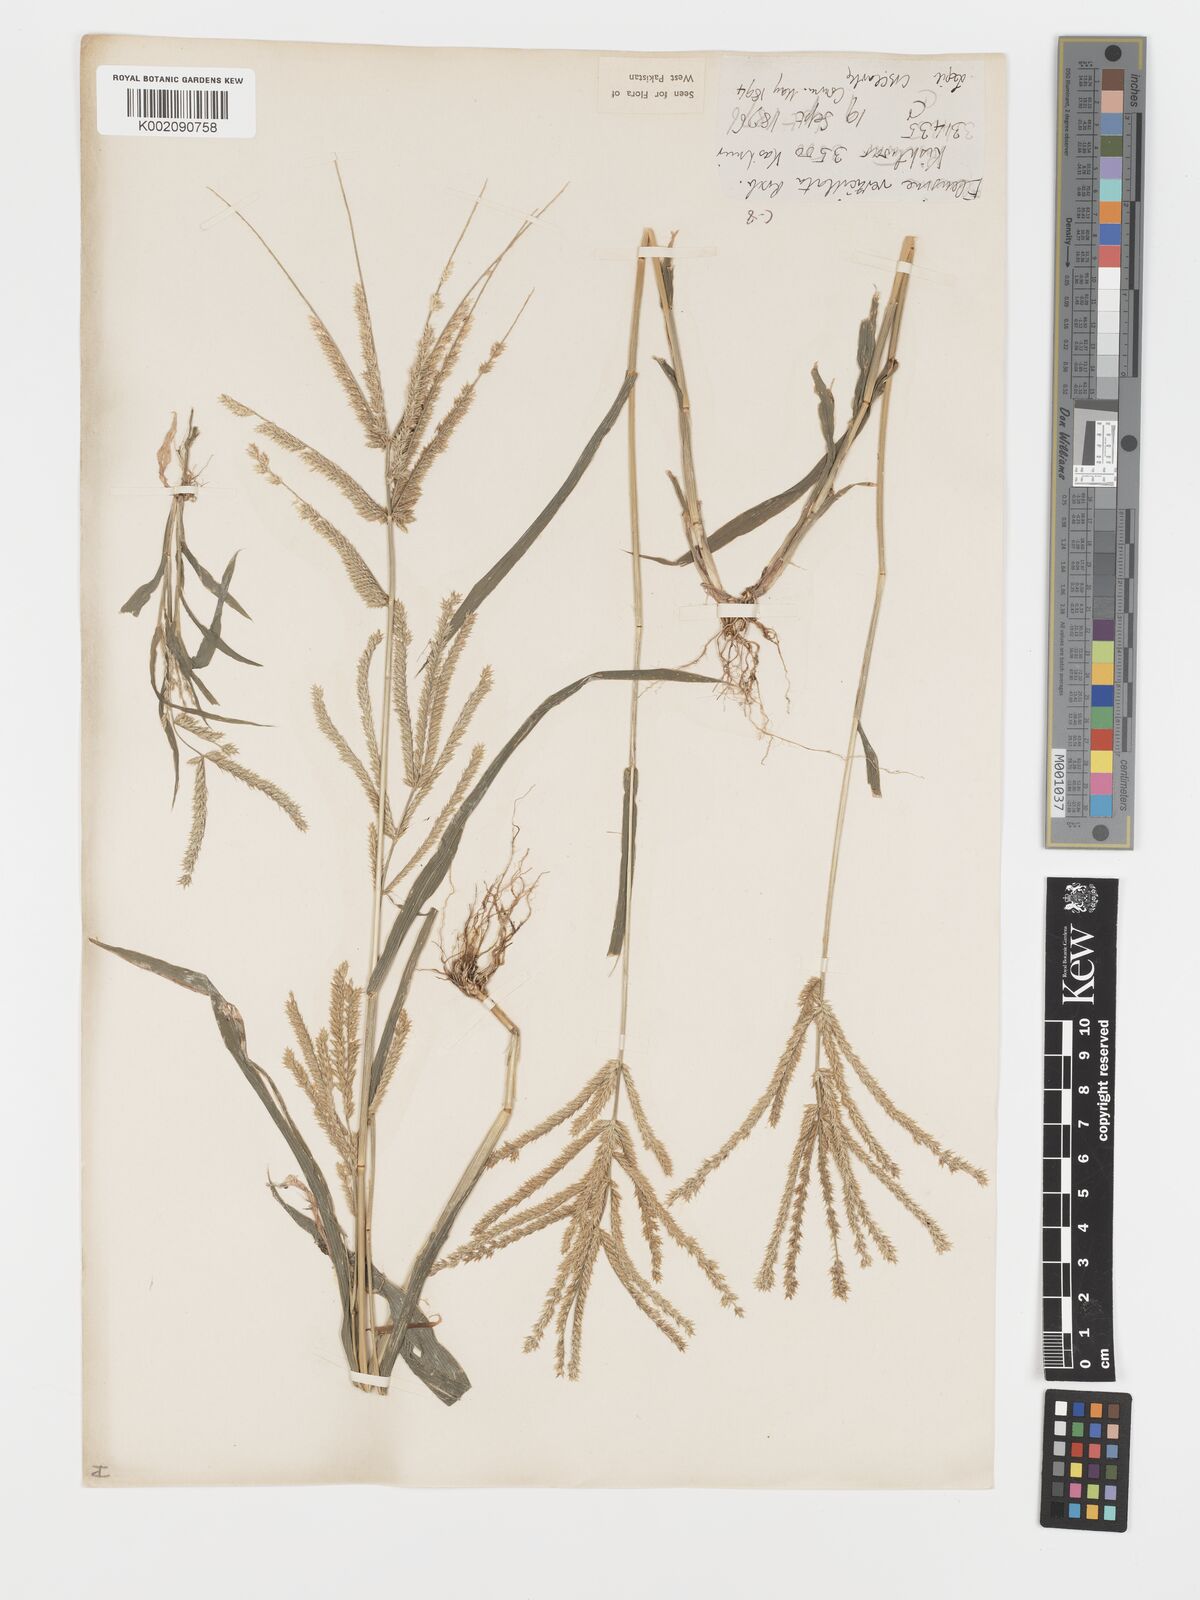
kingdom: Plantae
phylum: Tracheophyta
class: Liliopsida
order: Poales
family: Poaceae
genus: Acrachne
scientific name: Acrachne racemosa
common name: Goosegrass
